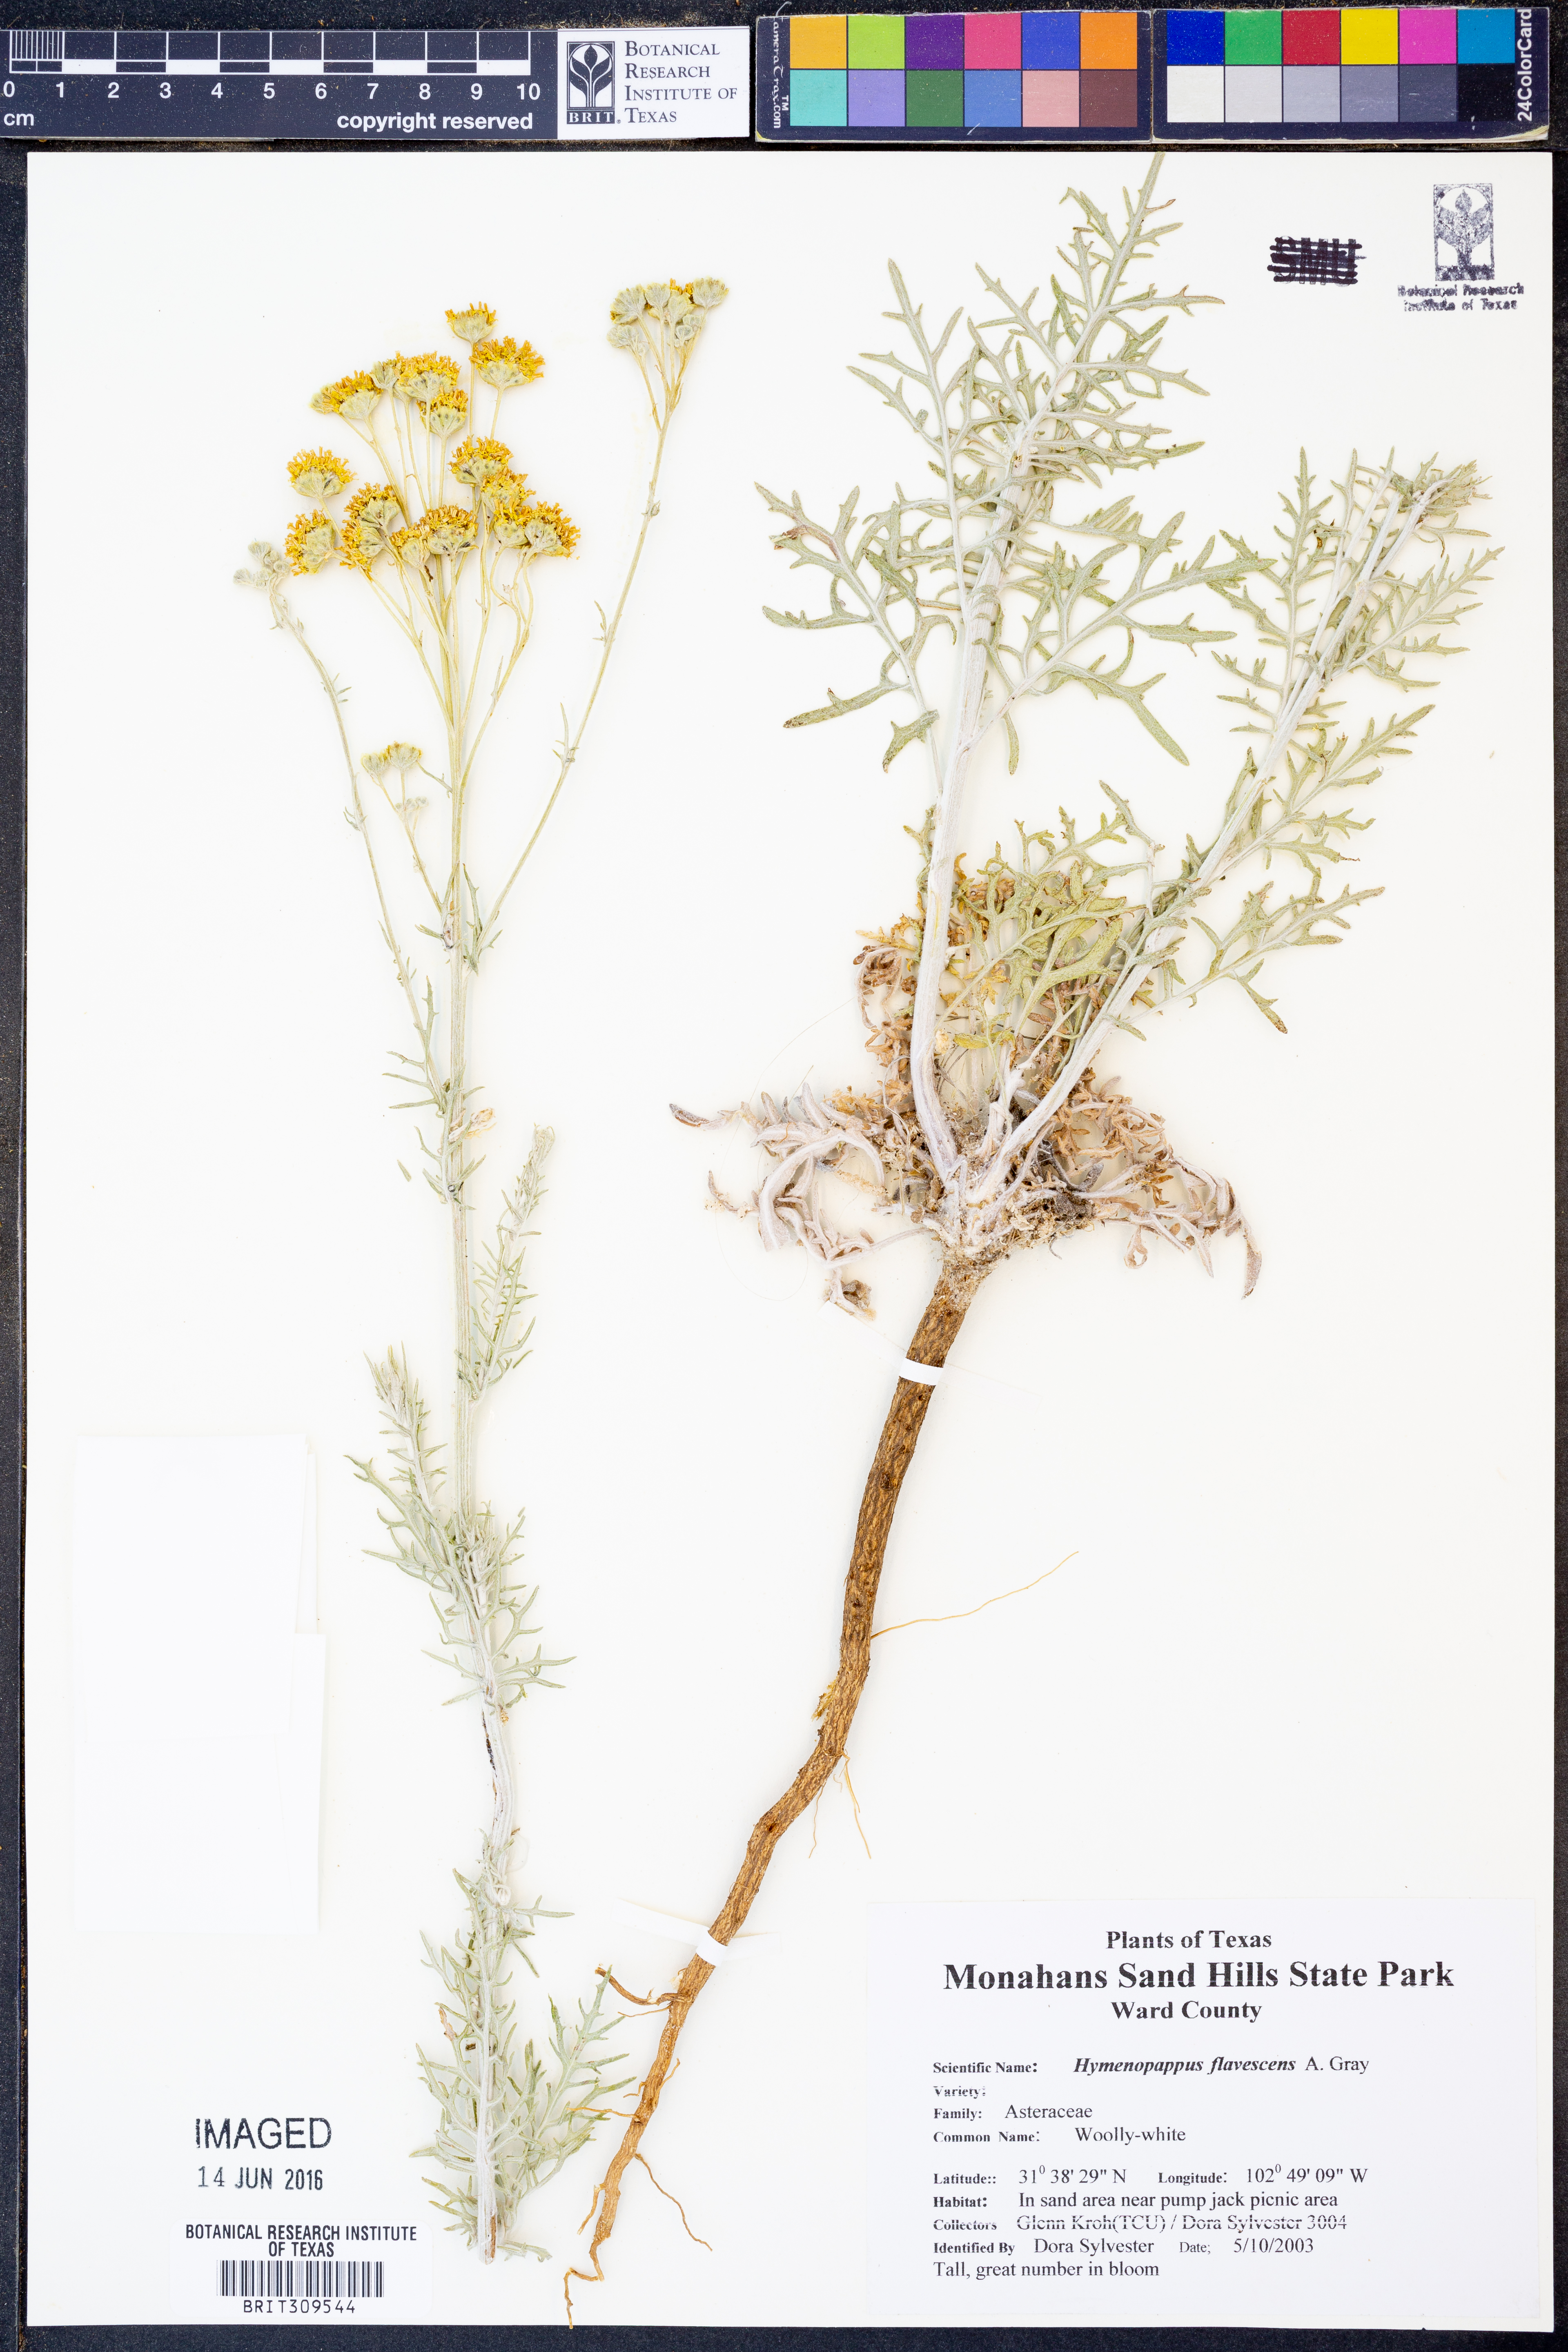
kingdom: Plantae
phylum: Tracheophyta
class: Magnoliopsida
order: Asterales
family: Asteraceae
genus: Hymenopappus
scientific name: Hymenopappus flavescens
